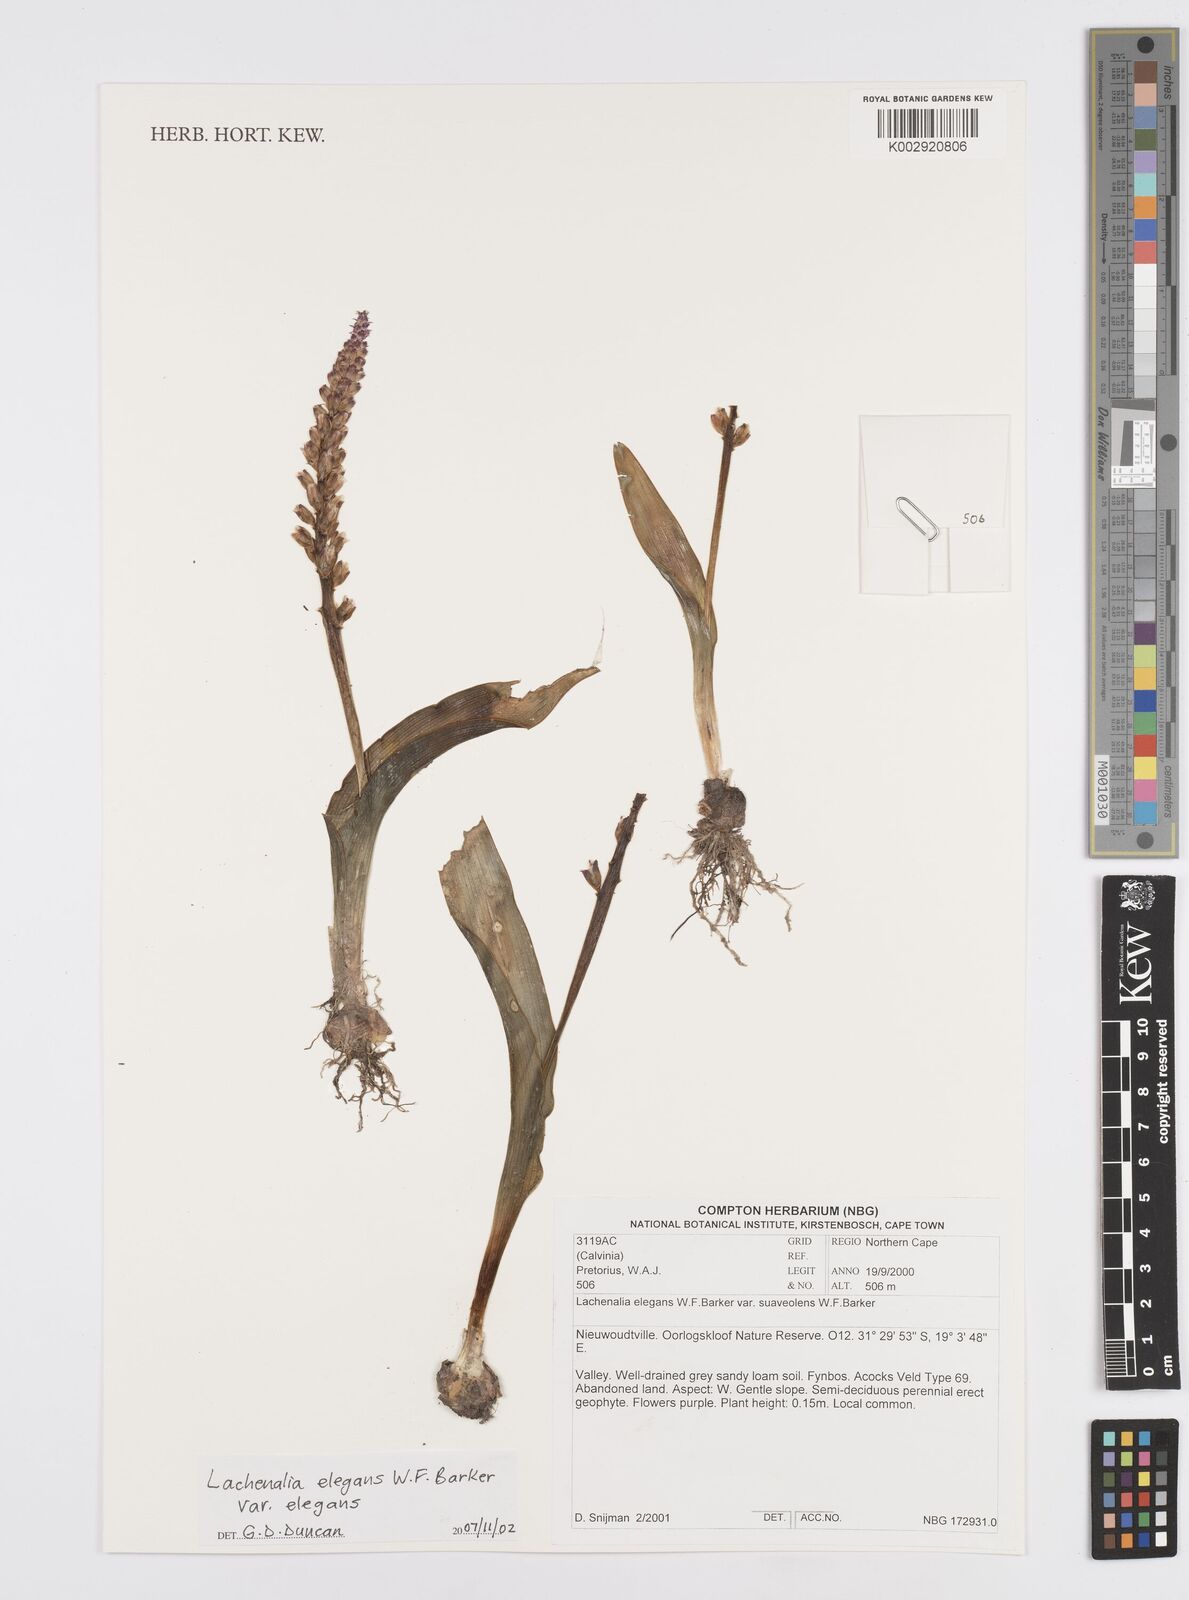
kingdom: Plantae
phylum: Tracheophyta
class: Liliopsida
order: Asparagales
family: Asparagaceae
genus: Lachenalia
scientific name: Lachenalia elegans
